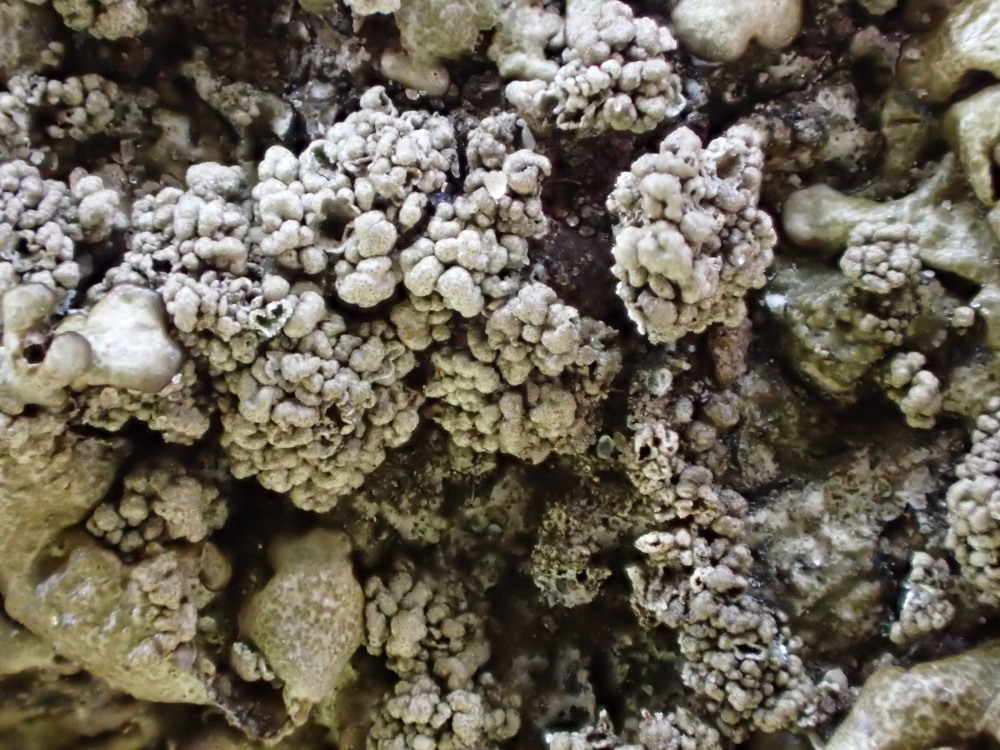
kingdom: Fungi
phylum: Ascomycota
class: Lecanoromycetes
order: Lecanorales
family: Parmeliaceae
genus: Xanthoparmelia
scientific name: Xanthoparmelia loxodes
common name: knudret skållav
